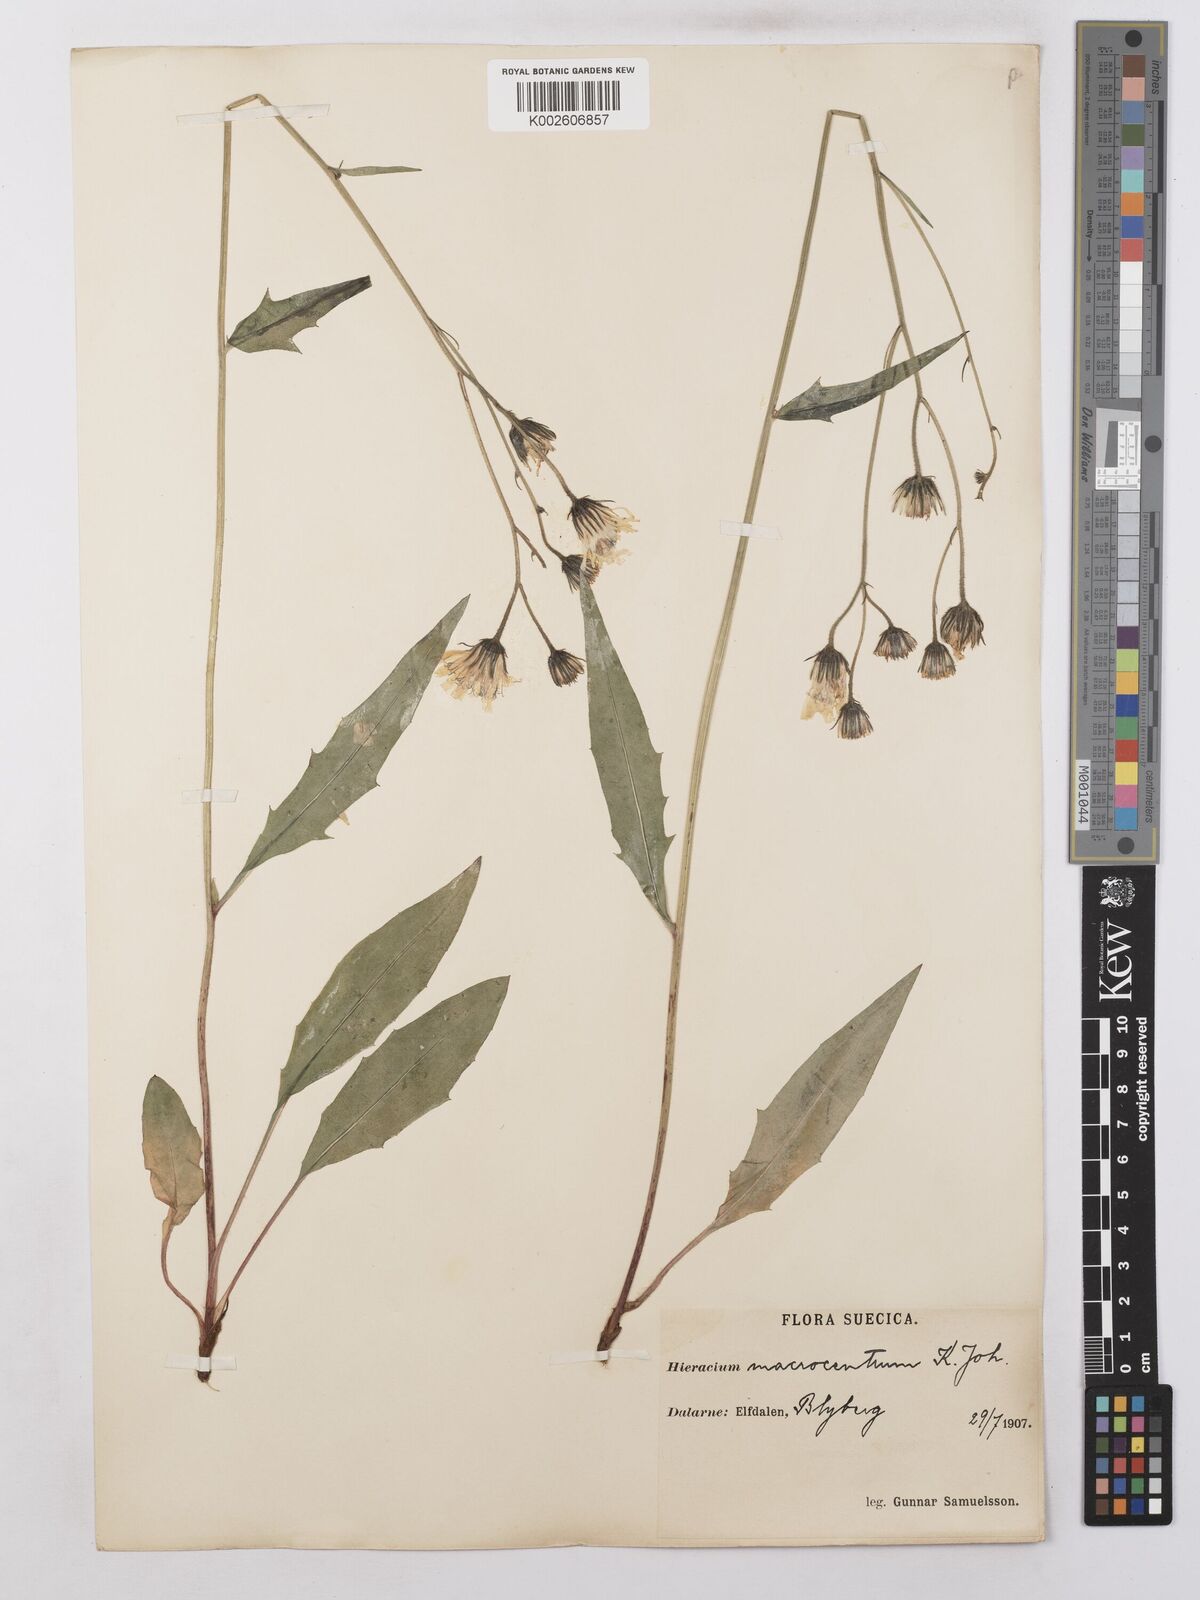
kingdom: Plantae
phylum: Tracheophyta
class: Magnoliopsida
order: Asterales
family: Asteraceae
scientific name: Asteraceae
